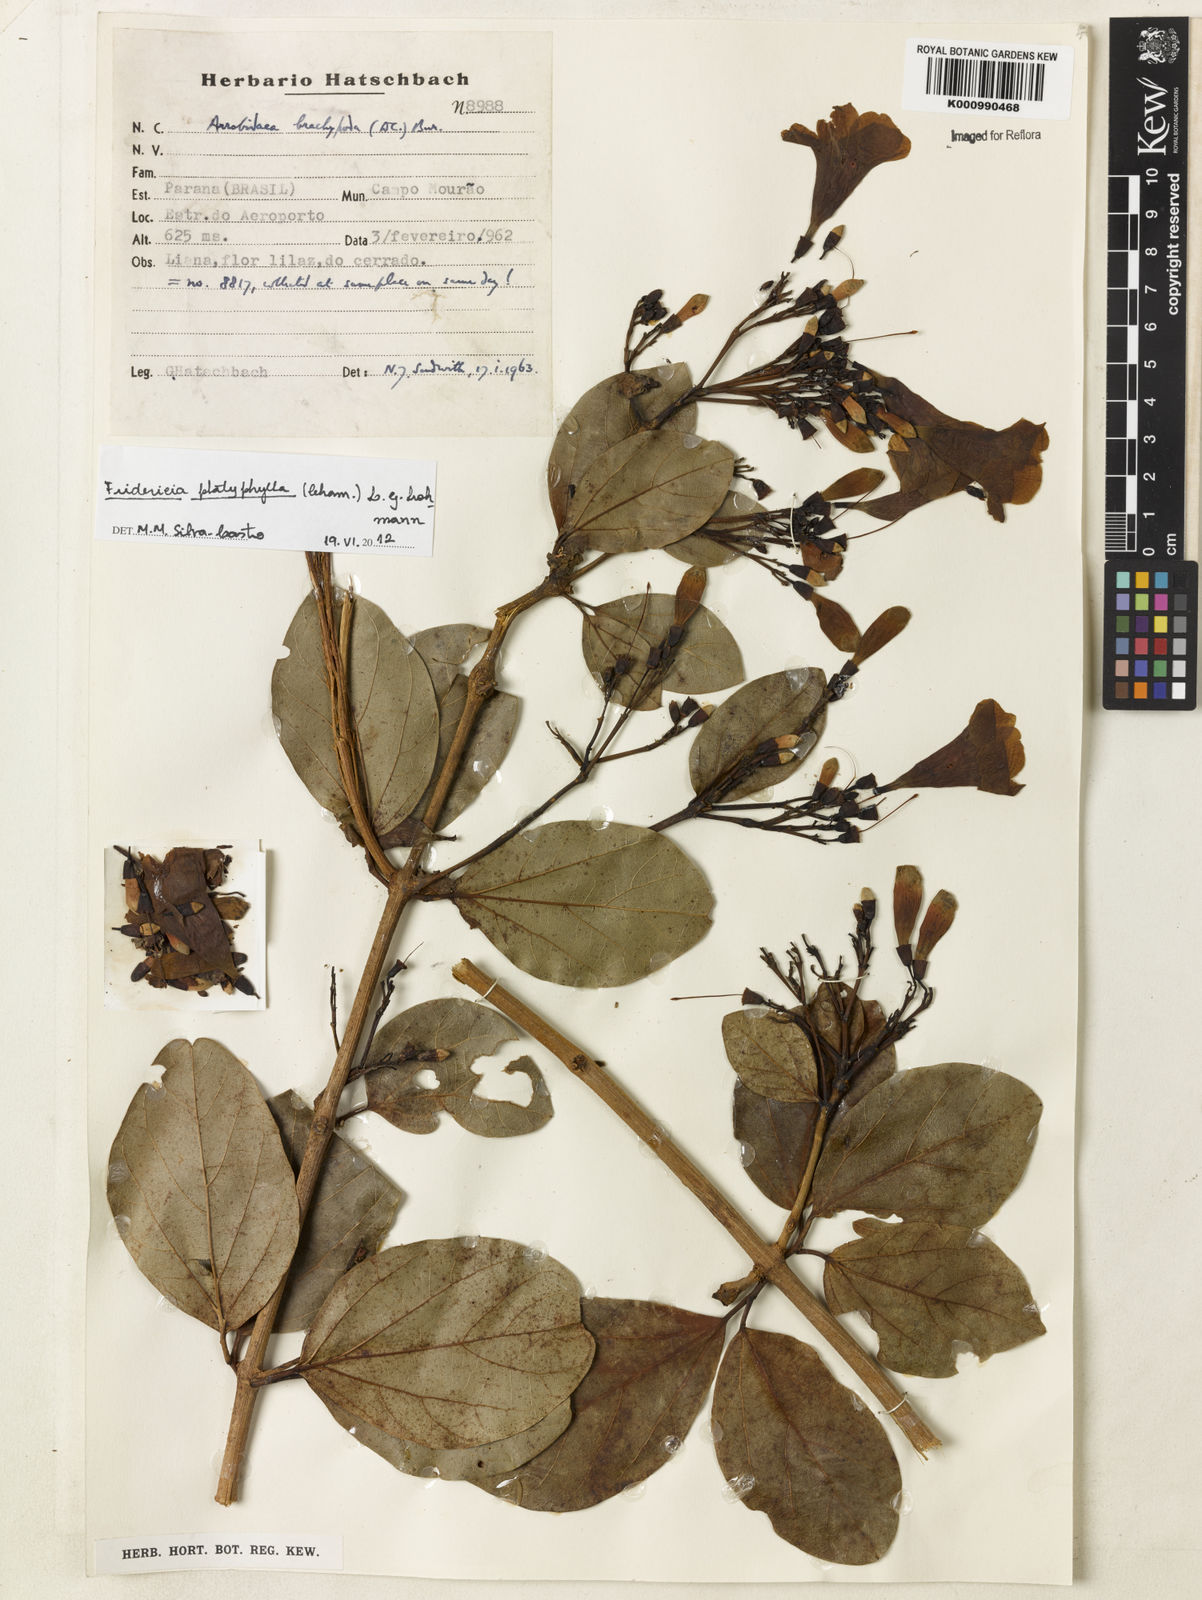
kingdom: Plantae
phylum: Tracheophyta
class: Magnoliopsida
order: Lamiales
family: Bignoniaceae
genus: Fridericia
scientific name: Fridericia platyphylla
